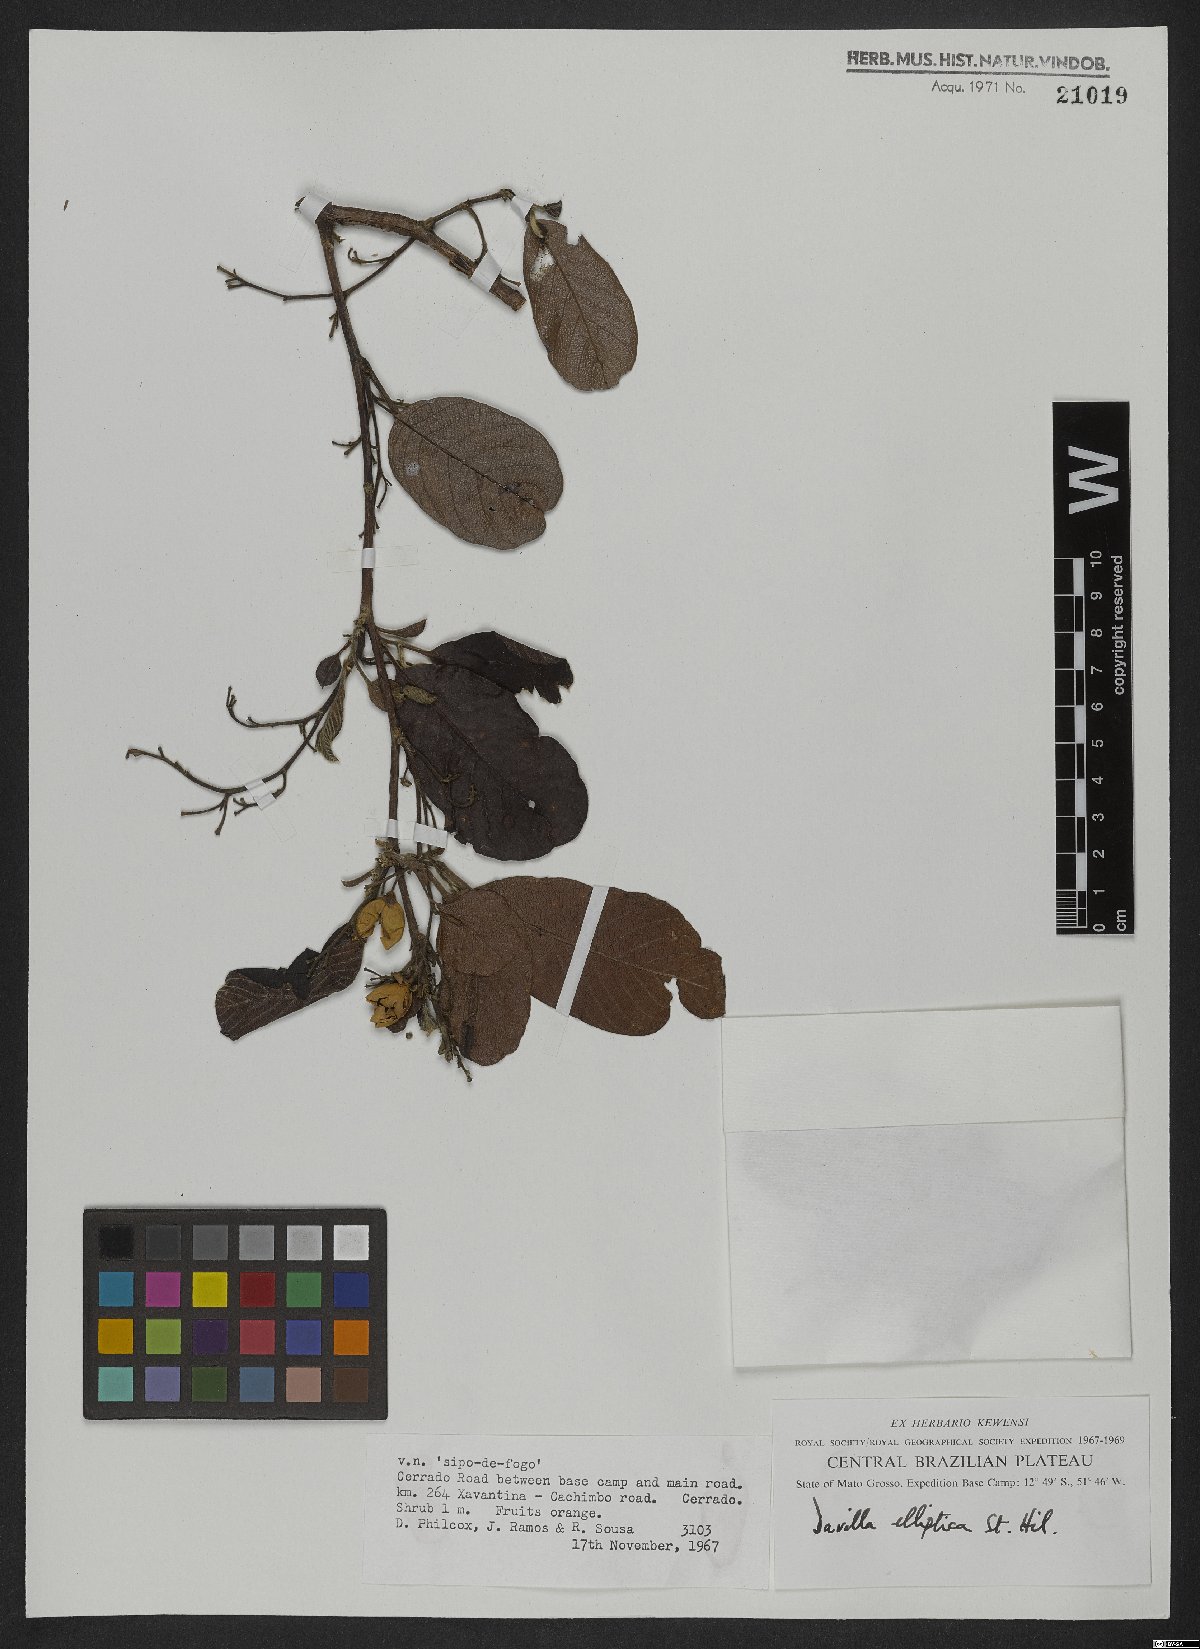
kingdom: Plantae
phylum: Tracheophyta
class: Magnoliopsida
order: Dilleniales
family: Dilleniaceae
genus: Davilla
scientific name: Davilla elliptica
